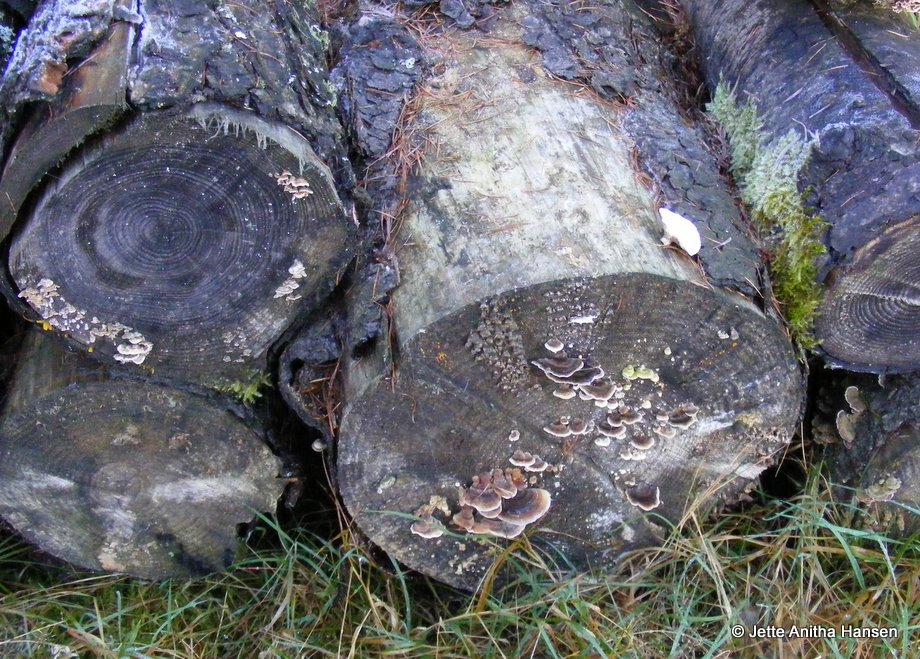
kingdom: Fungi
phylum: Basidiomycota
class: Agaricomycetes
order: Polyporales
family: Polyporaceae
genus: Trametes
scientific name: Trametes versicolor
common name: broget læderporesvamp
